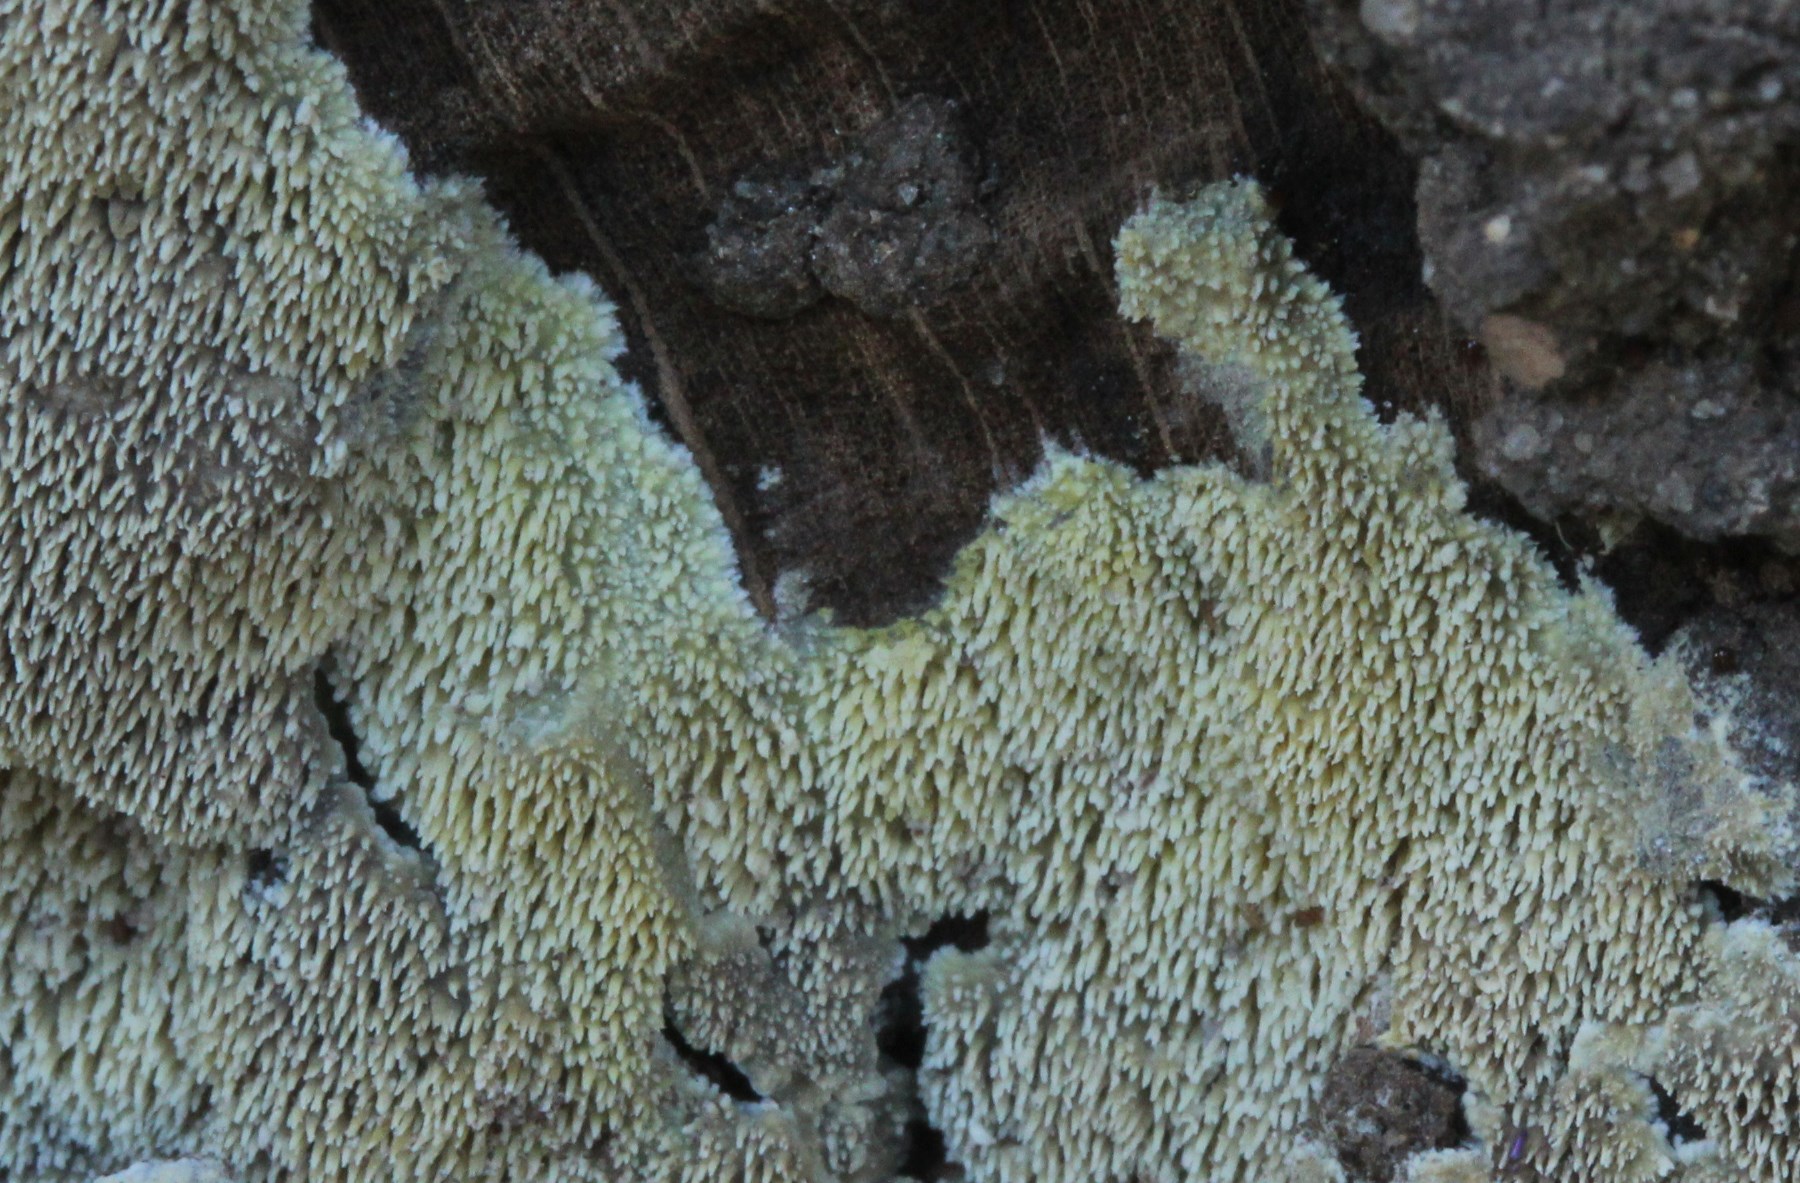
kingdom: Fungi
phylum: Basidiomycota
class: Agaricomycetes
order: Polyporales
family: Meruliaceae
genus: Mycoacia
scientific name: Mycoacia uda
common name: citrongul vokspig
